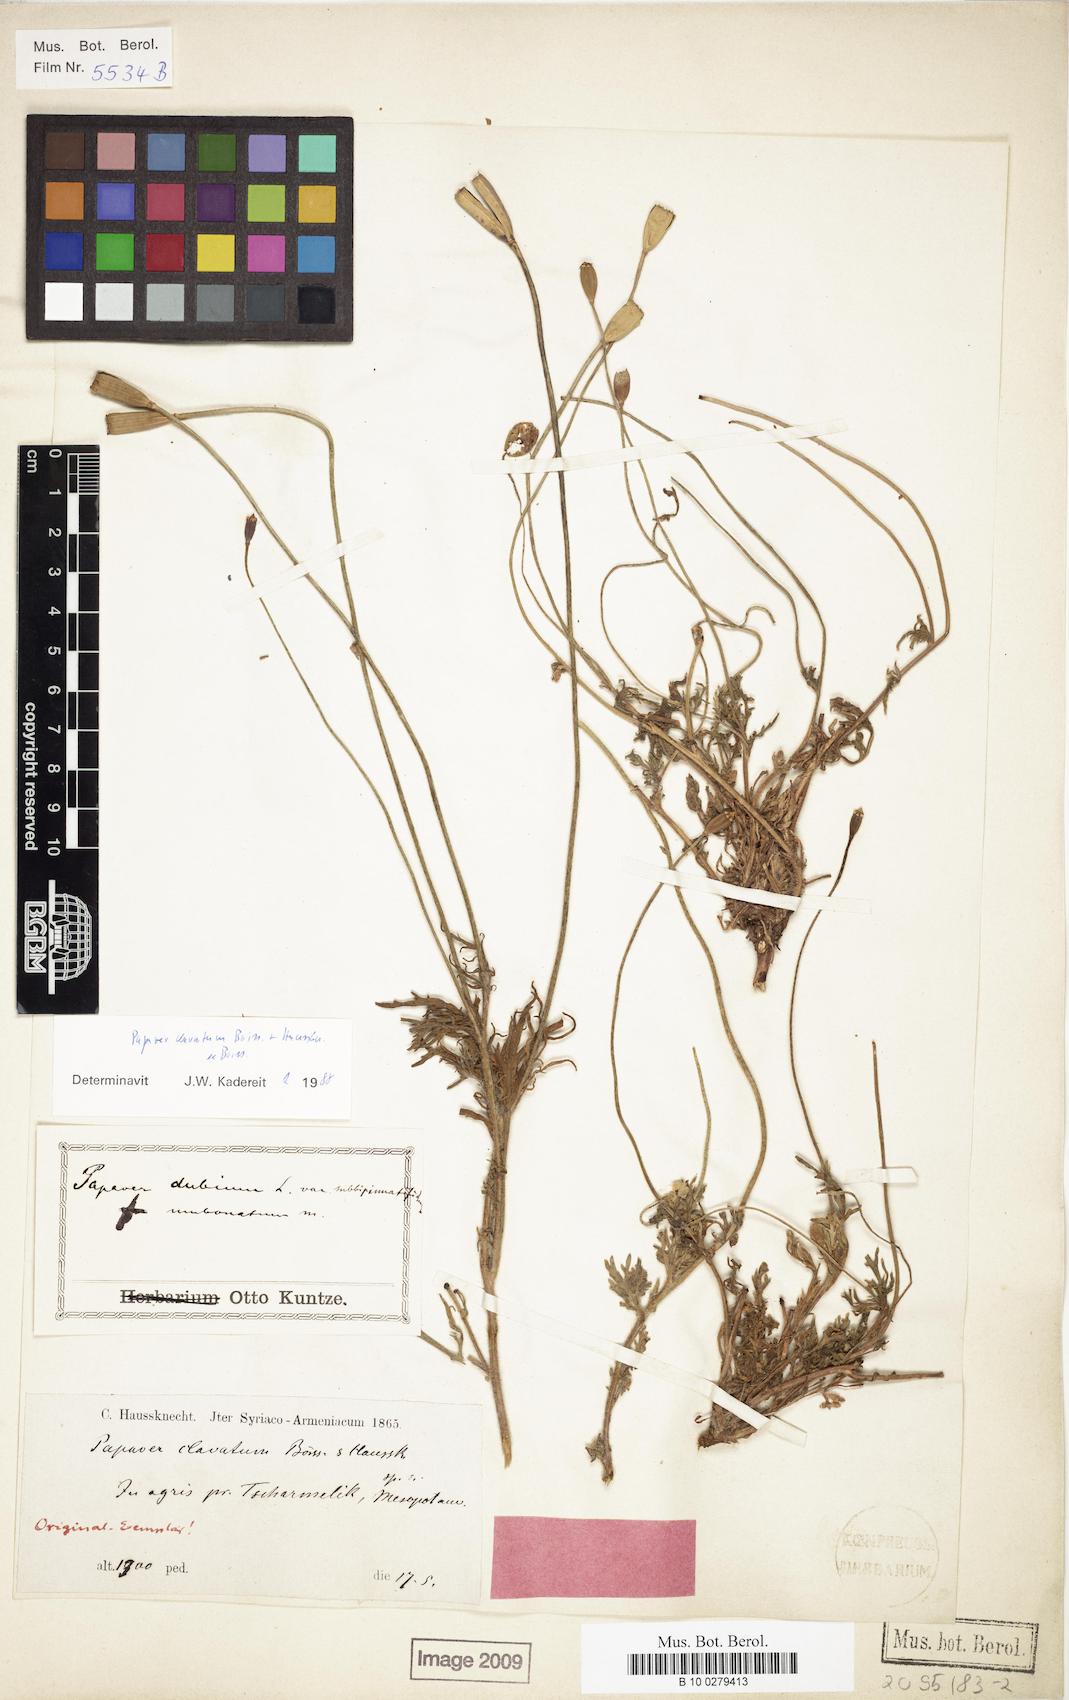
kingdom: Plantae
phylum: Tracheophyta
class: Magnoliopsida
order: Ranunculales
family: Papaveraceae
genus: Papaver
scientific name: Papaver clavatum
